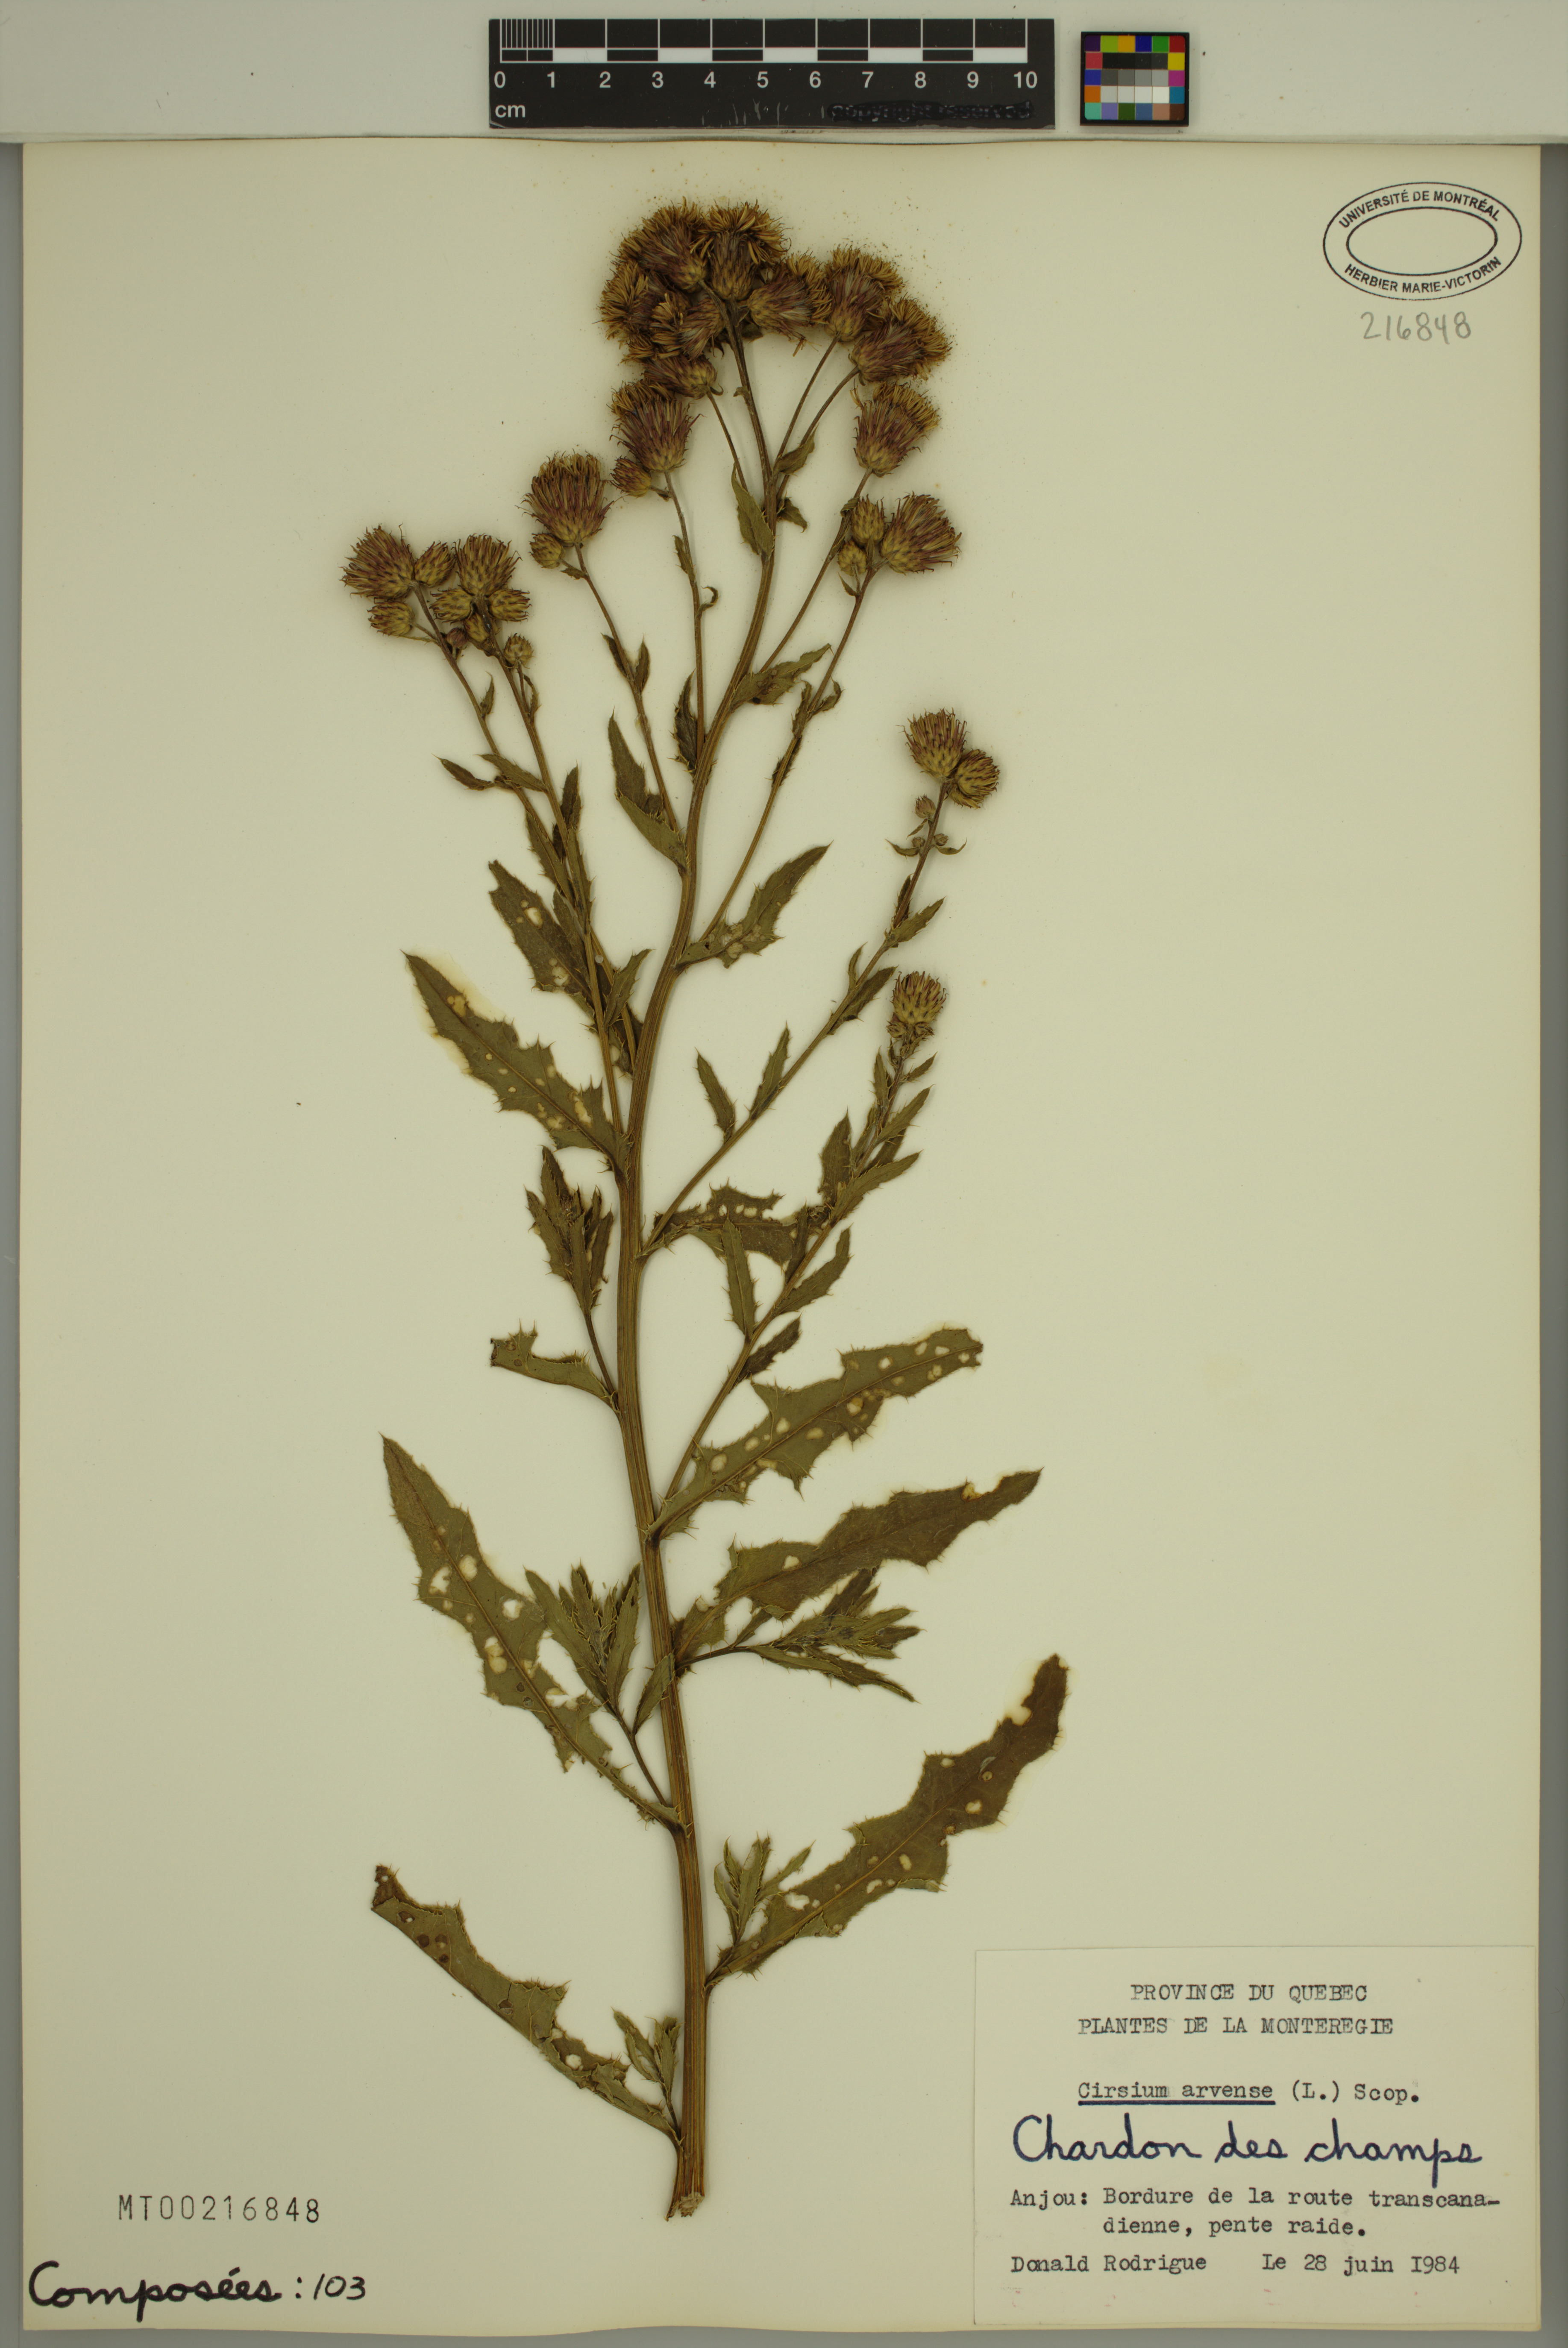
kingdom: Plantae
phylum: Tracheophyta
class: Magnoliopsida
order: Asterales
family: Asteraceae
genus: Cirsium
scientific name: Cirsium arvense
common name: Creeping thistle
